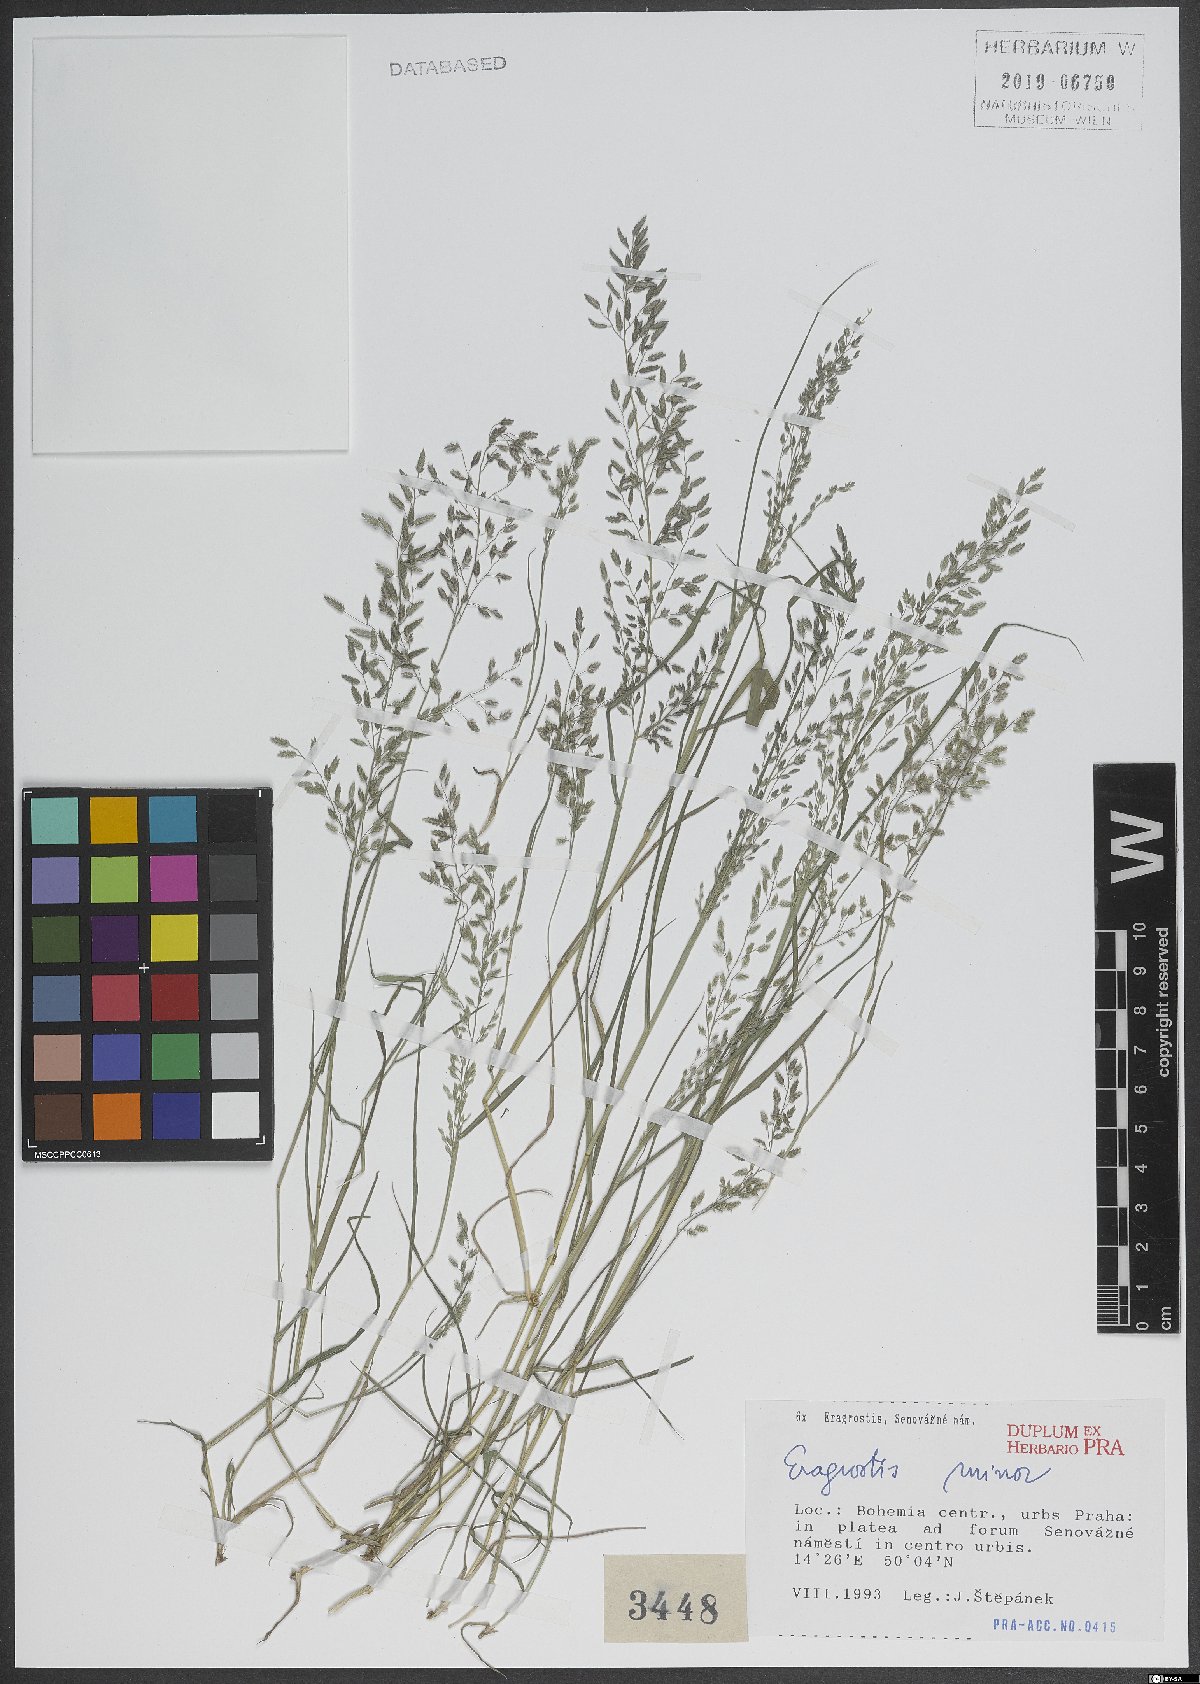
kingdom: Plantae
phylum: Tracheophyta
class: Liliopsida
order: Poales
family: Poaceae
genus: Eragrostis
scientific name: Eragrostis minor
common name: Small love-grass
